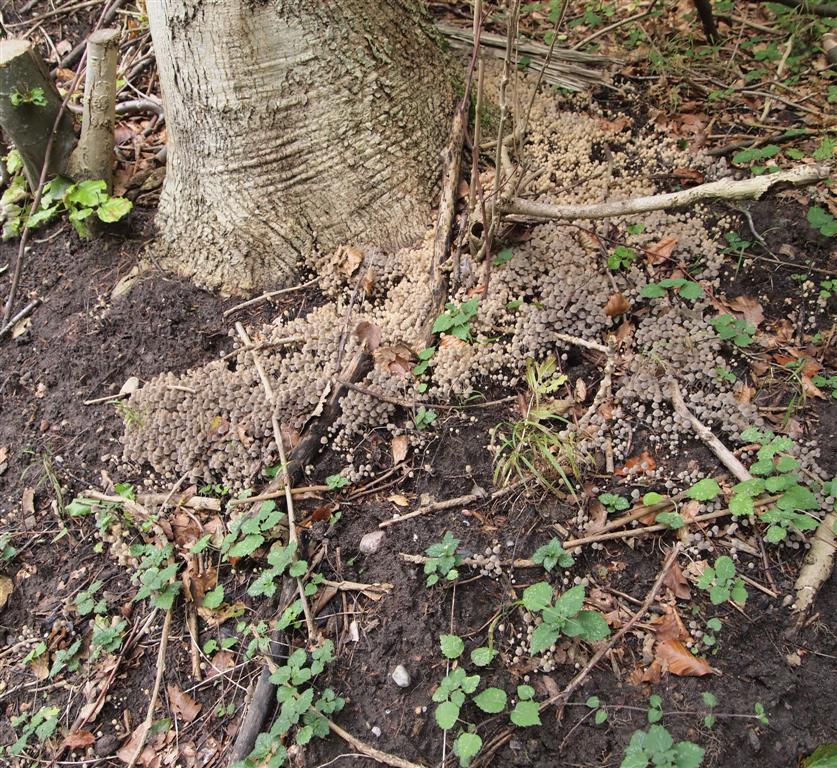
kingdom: Fungi
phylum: Basidiomycota
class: Agaricomycetes
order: Agaricales
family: Psathyrellaceae
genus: Coprinellus
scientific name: Coprinellus disseminatus
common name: bredsået blækhat
